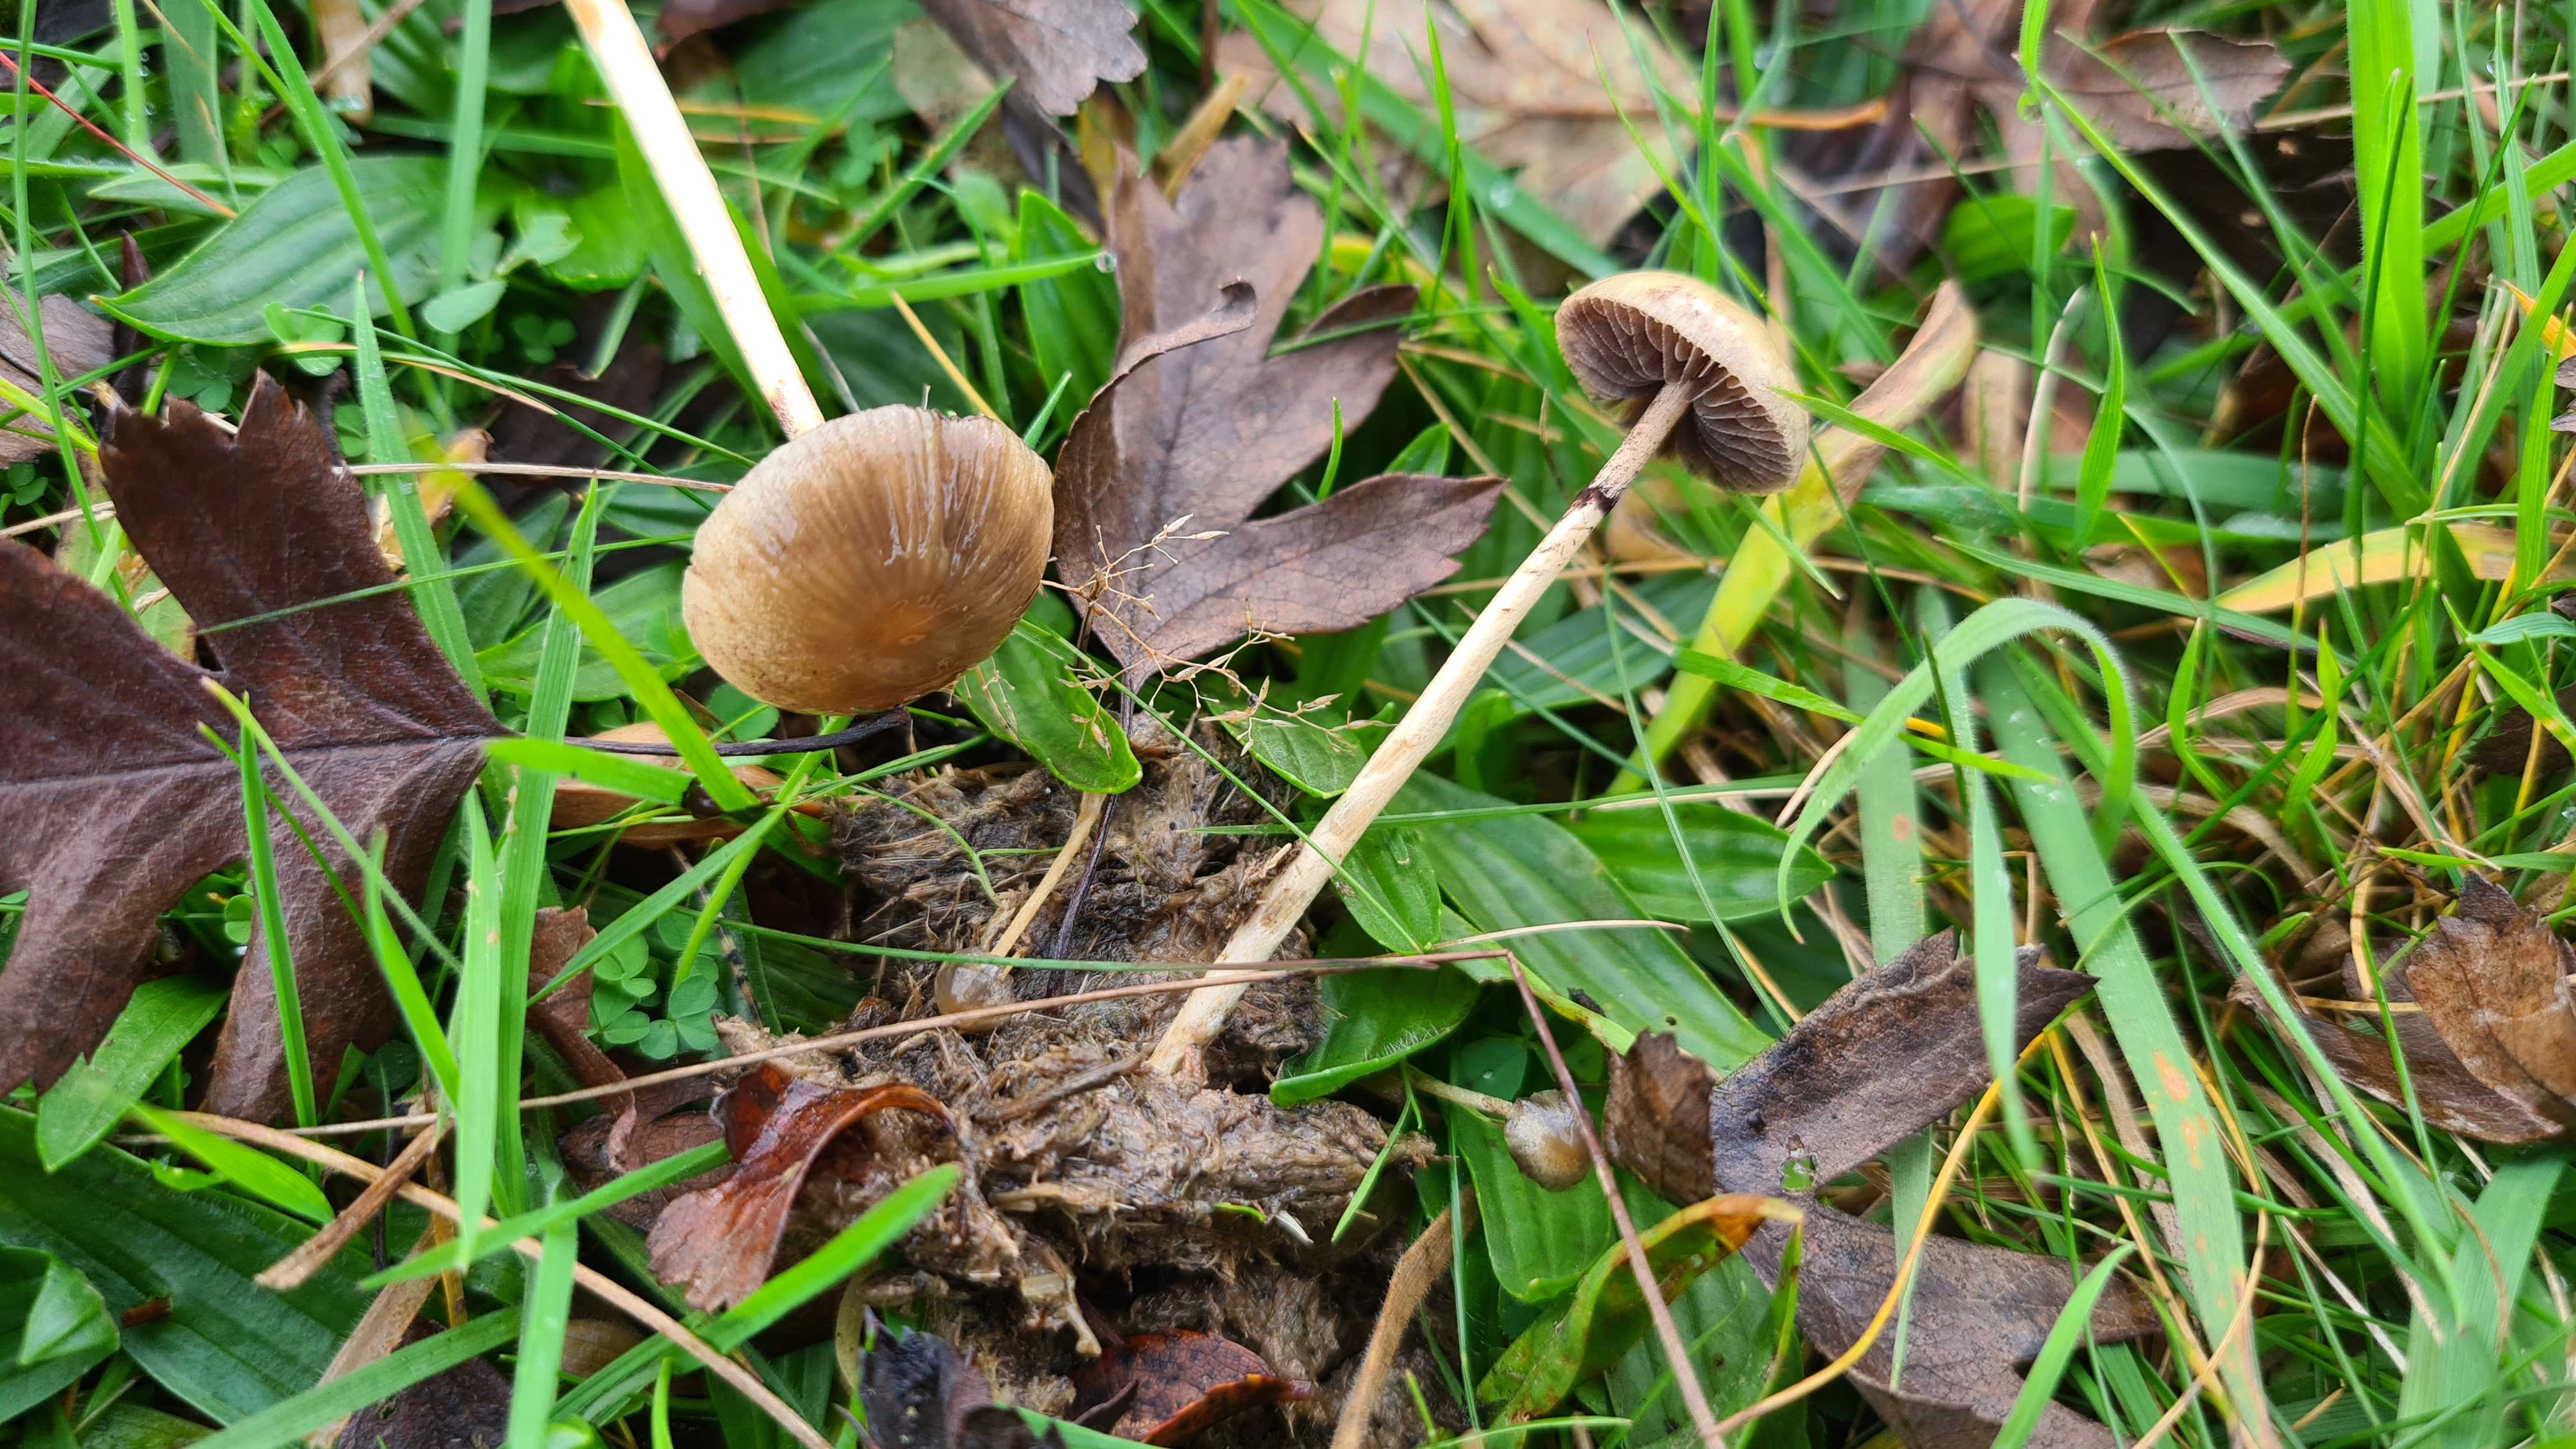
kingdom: Fungi
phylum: Basidiomycota
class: Agaricomycetes
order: Agaricales
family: Strophariaceae
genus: Protostropharia
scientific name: Protostropharia semiglobata
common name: halvkugleformet bredblad
